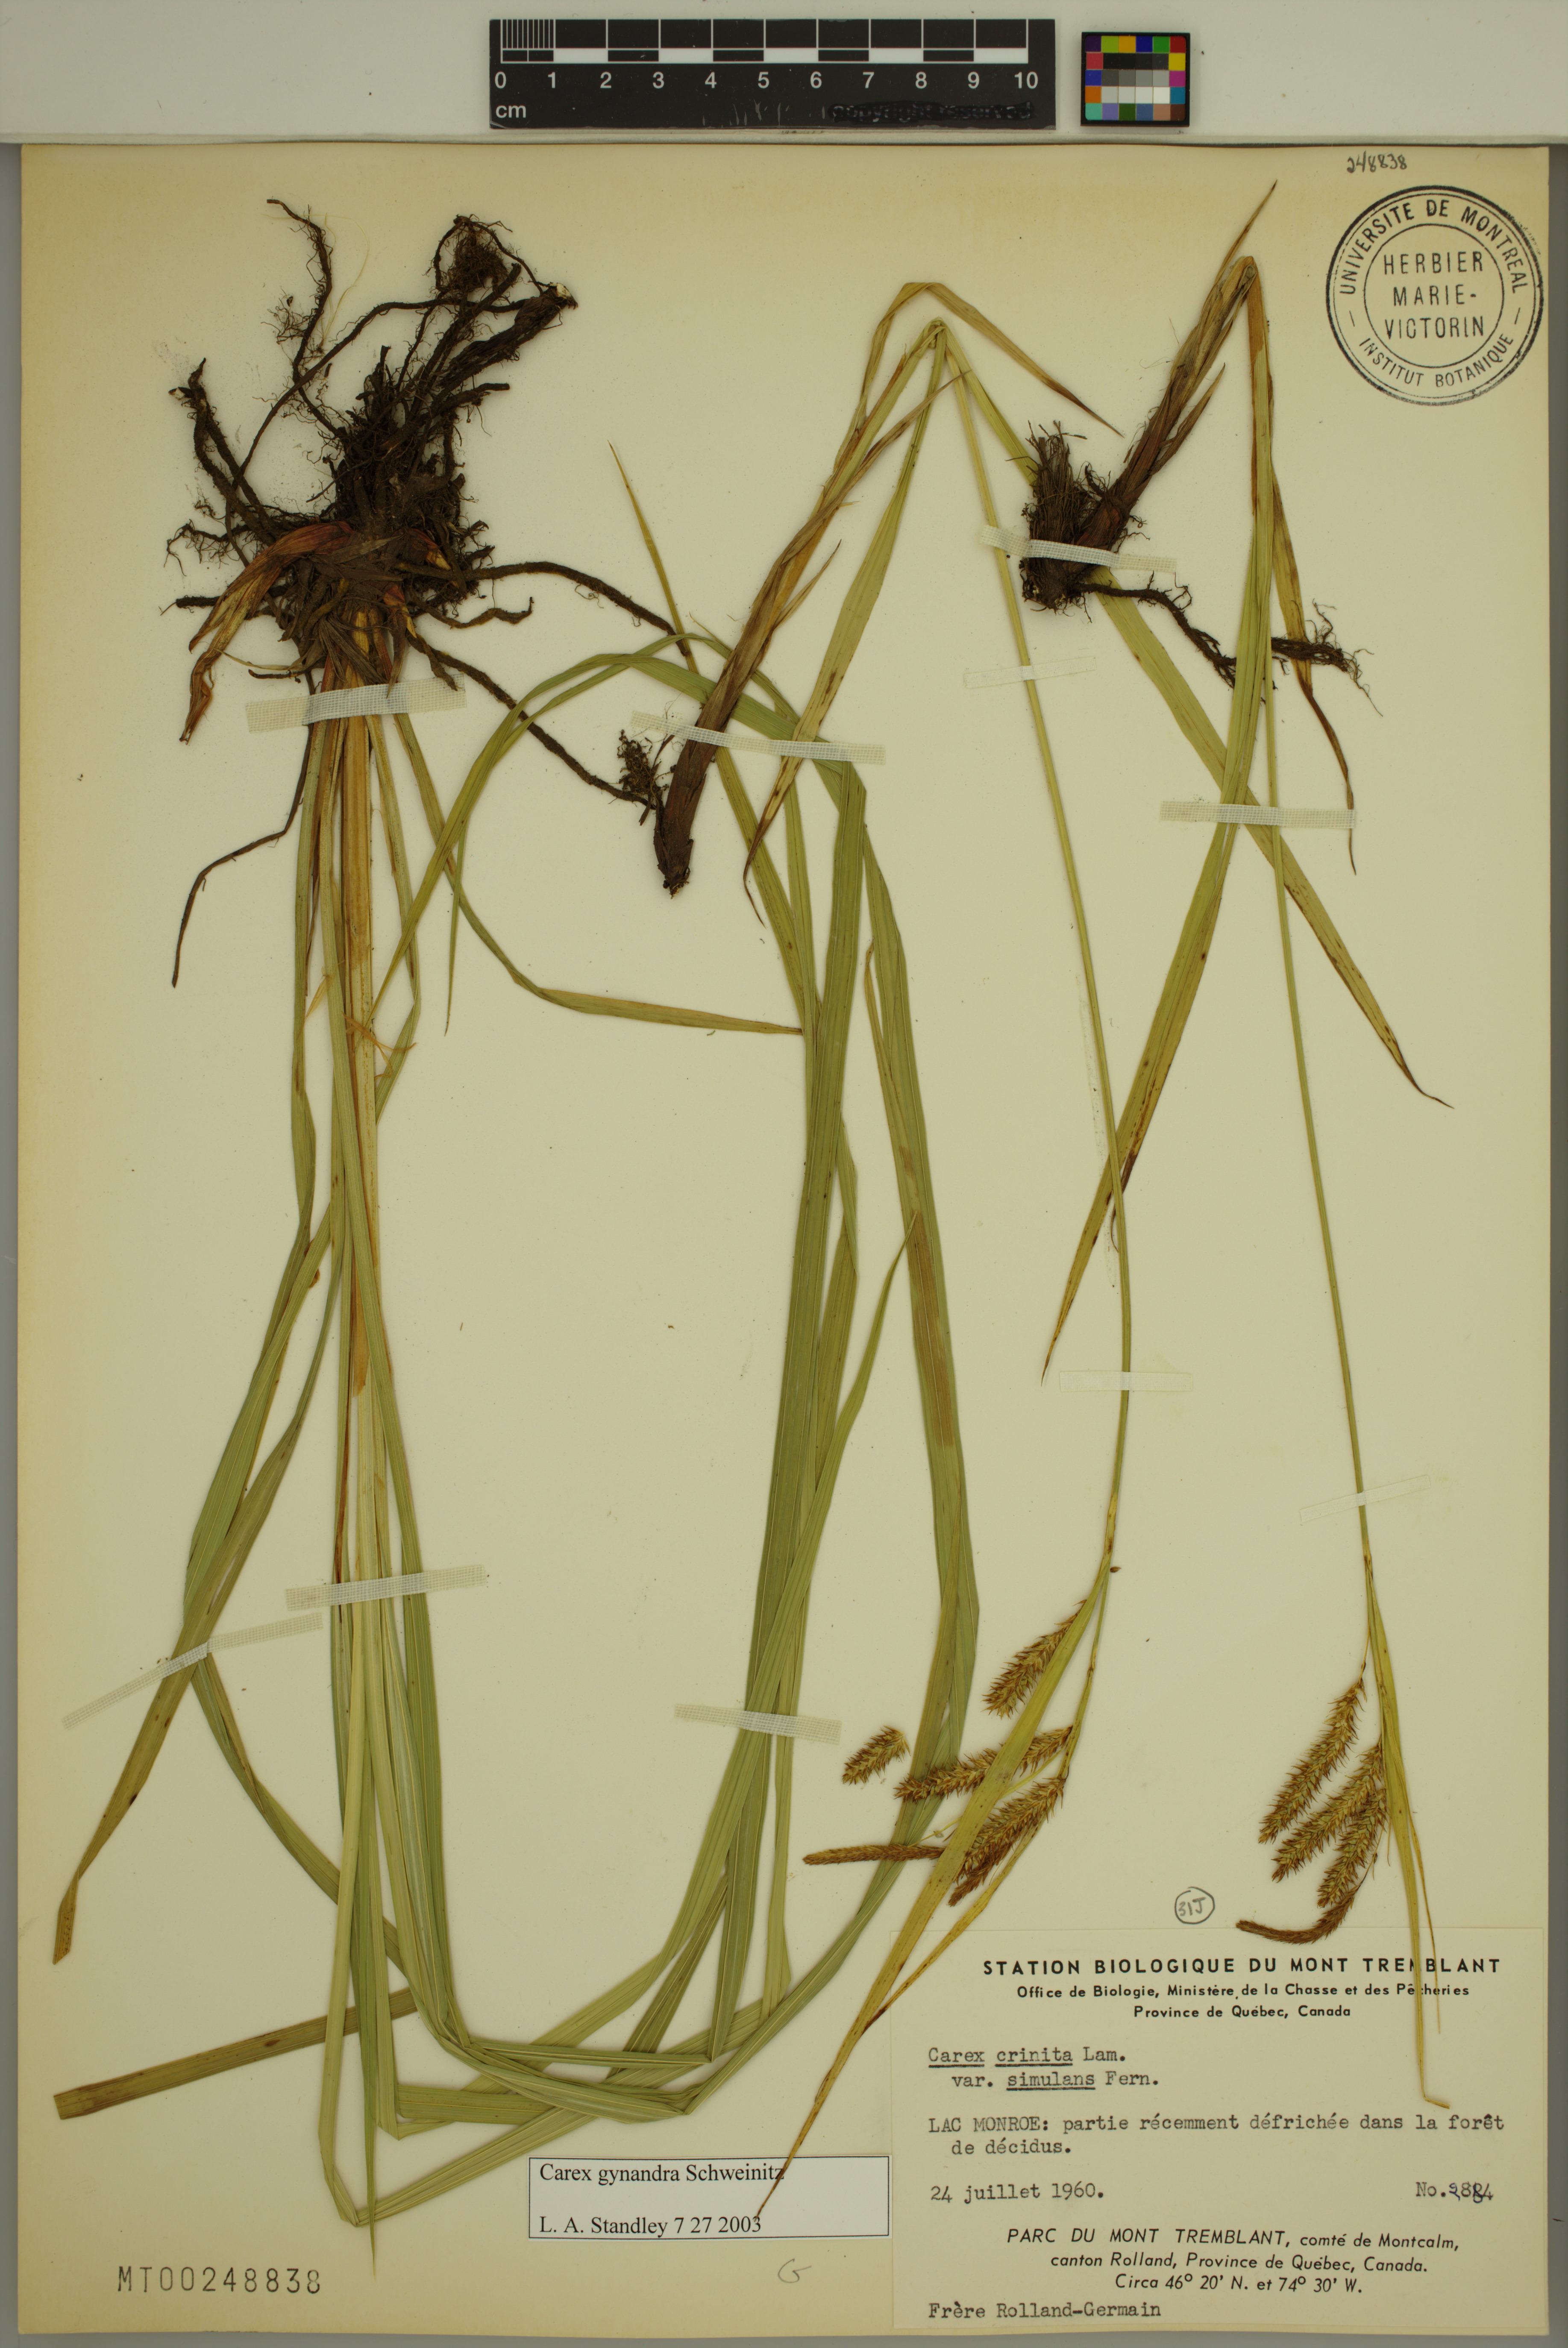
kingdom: Plantae
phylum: Tracheophyta
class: Liliopsida
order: Poales
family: Cyperaceae
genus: Carex
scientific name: Carex gynandra
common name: Nodding sedge
